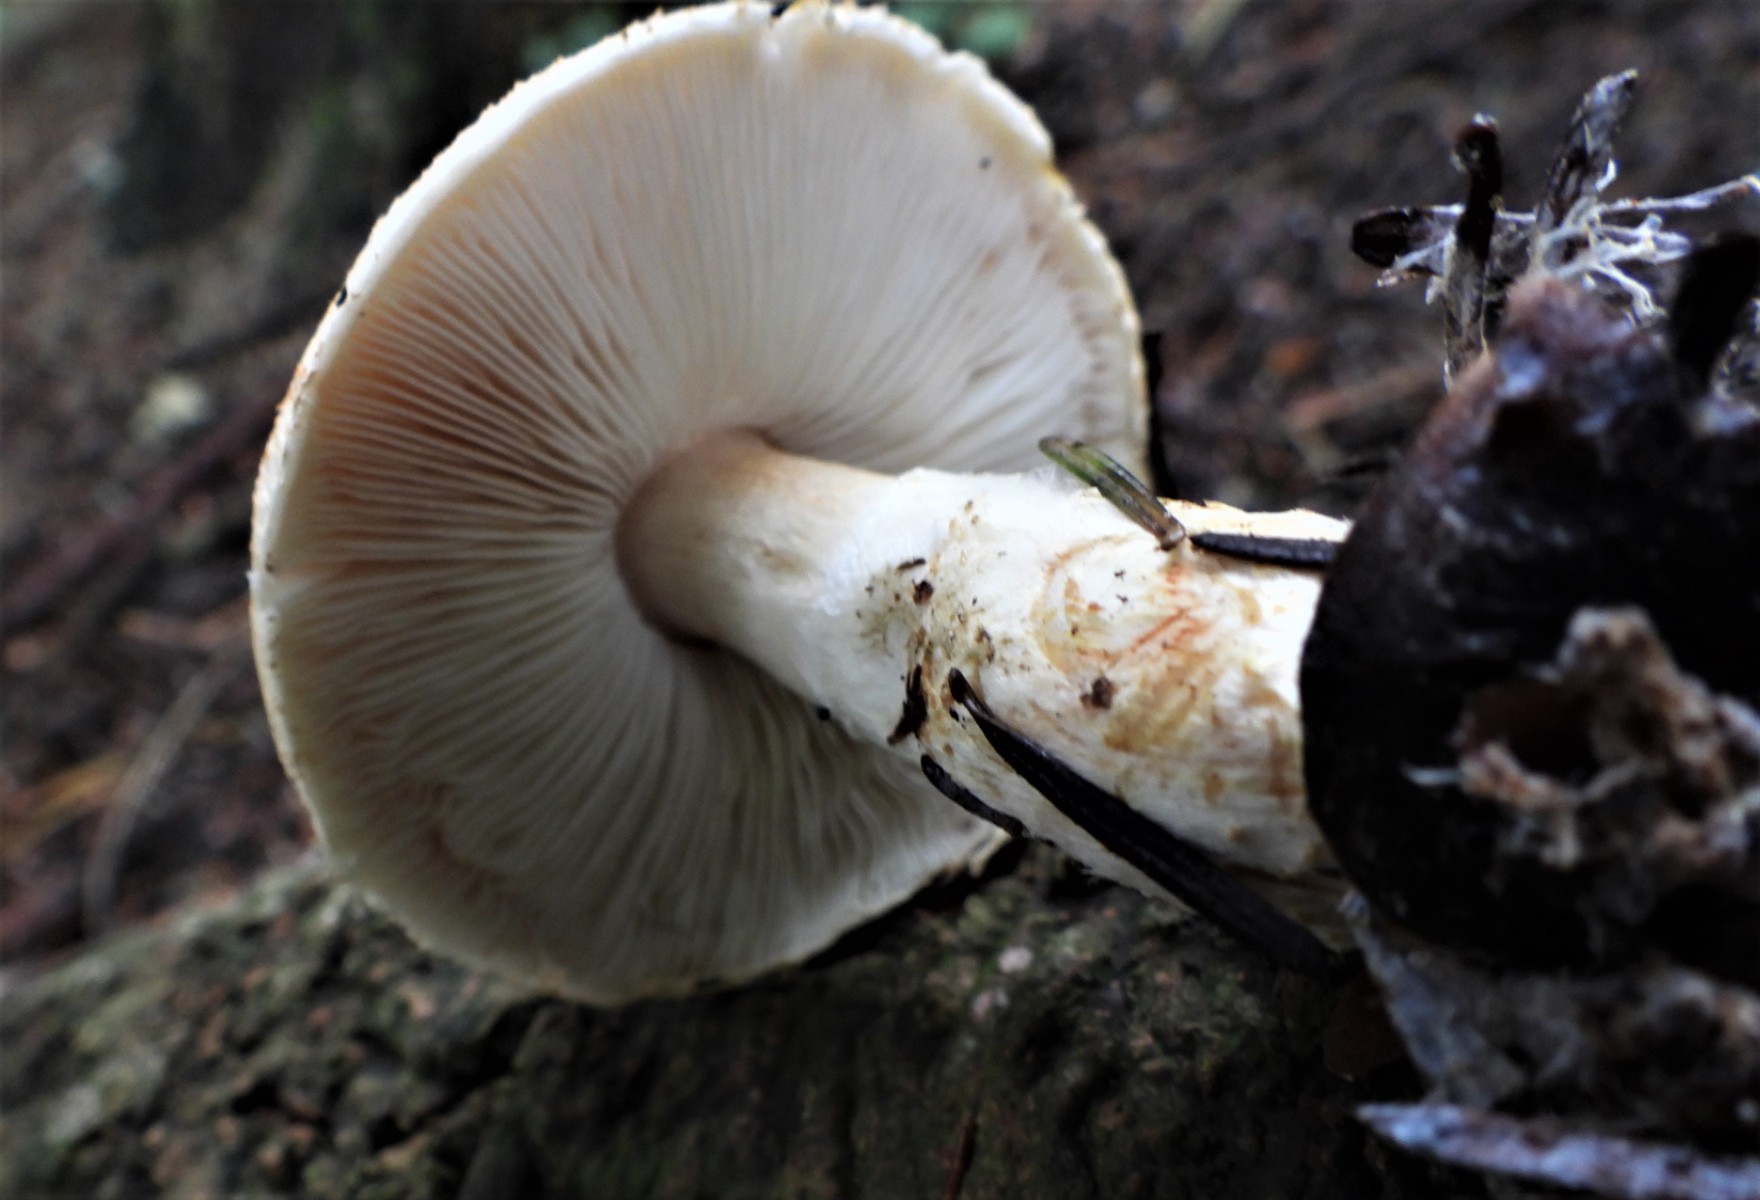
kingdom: Fungi
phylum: Basidiomycota
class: Agaricomycetes
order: Agaricales
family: Agaricaceae
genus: Lepiota
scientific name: Lepiota ochraceofulva
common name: sødtduftende parasolhat
